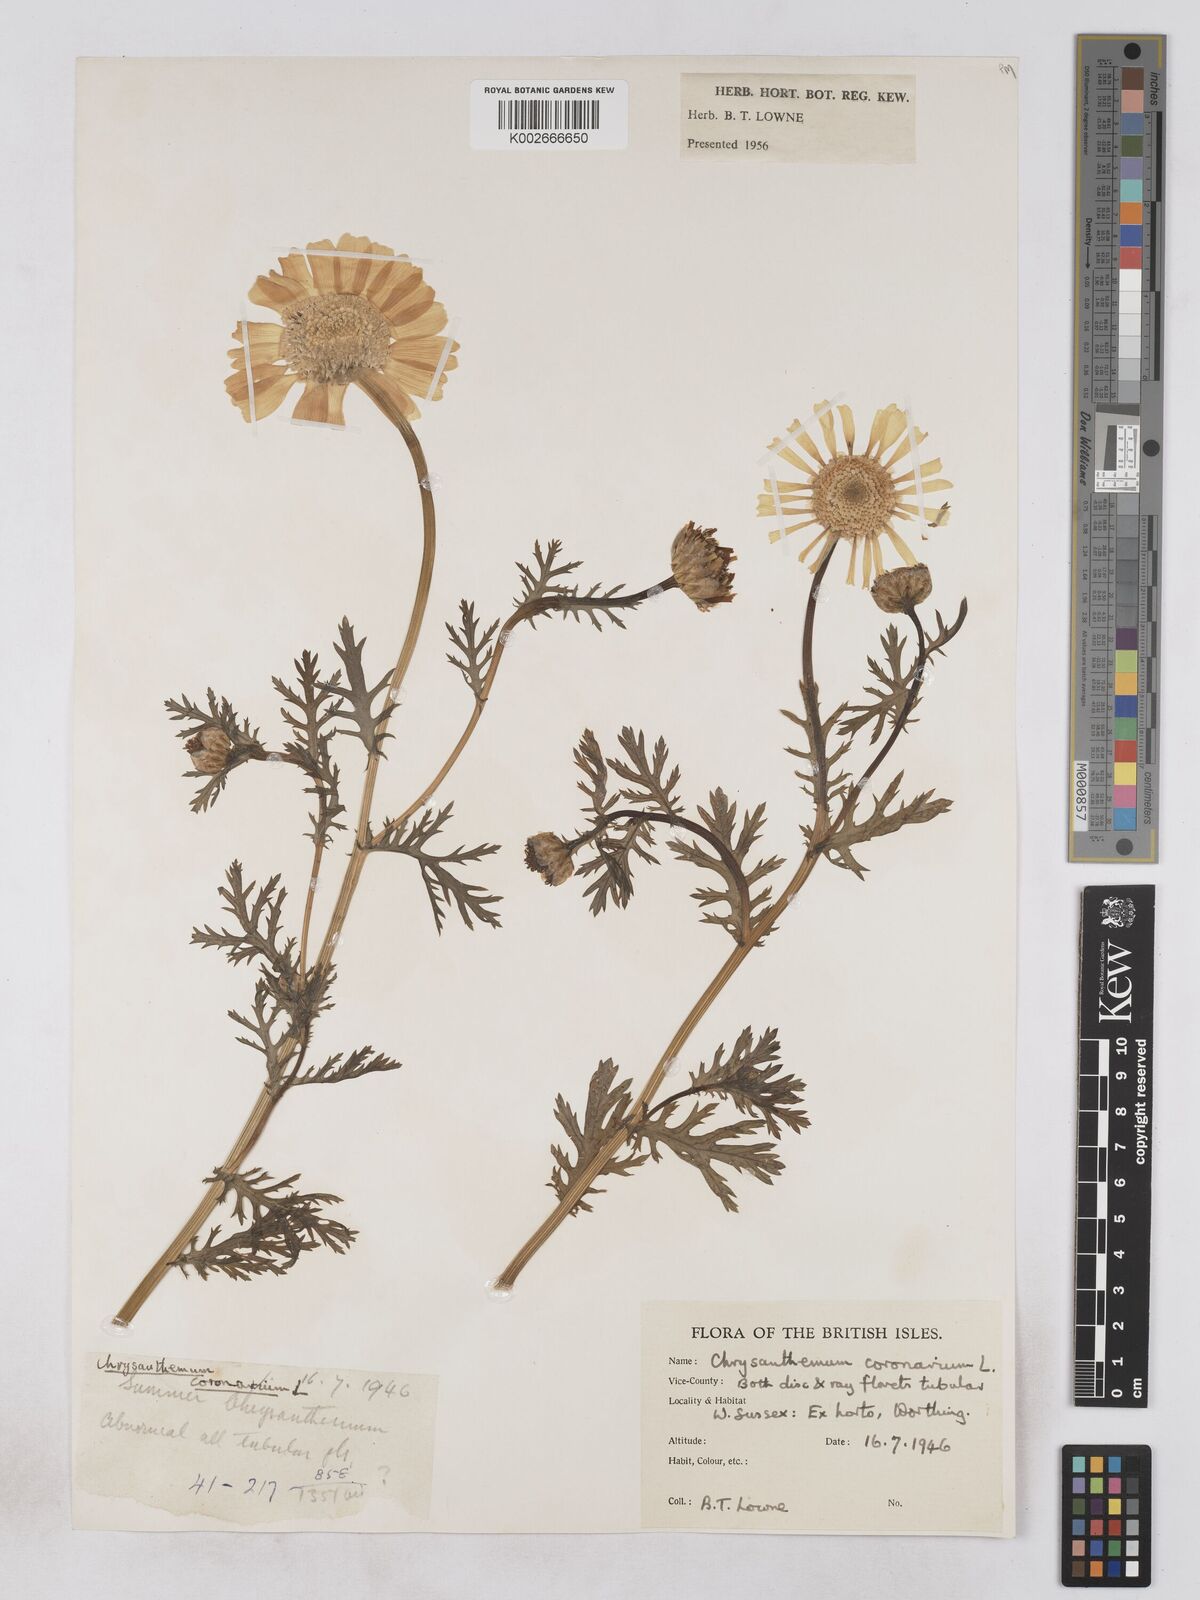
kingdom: Plantae
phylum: Tracheophyta
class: Magnoliopsida
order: Asterales
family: Asteraceae
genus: Glebionis
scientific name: Glebionis coronaria
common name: Crowndaisy
